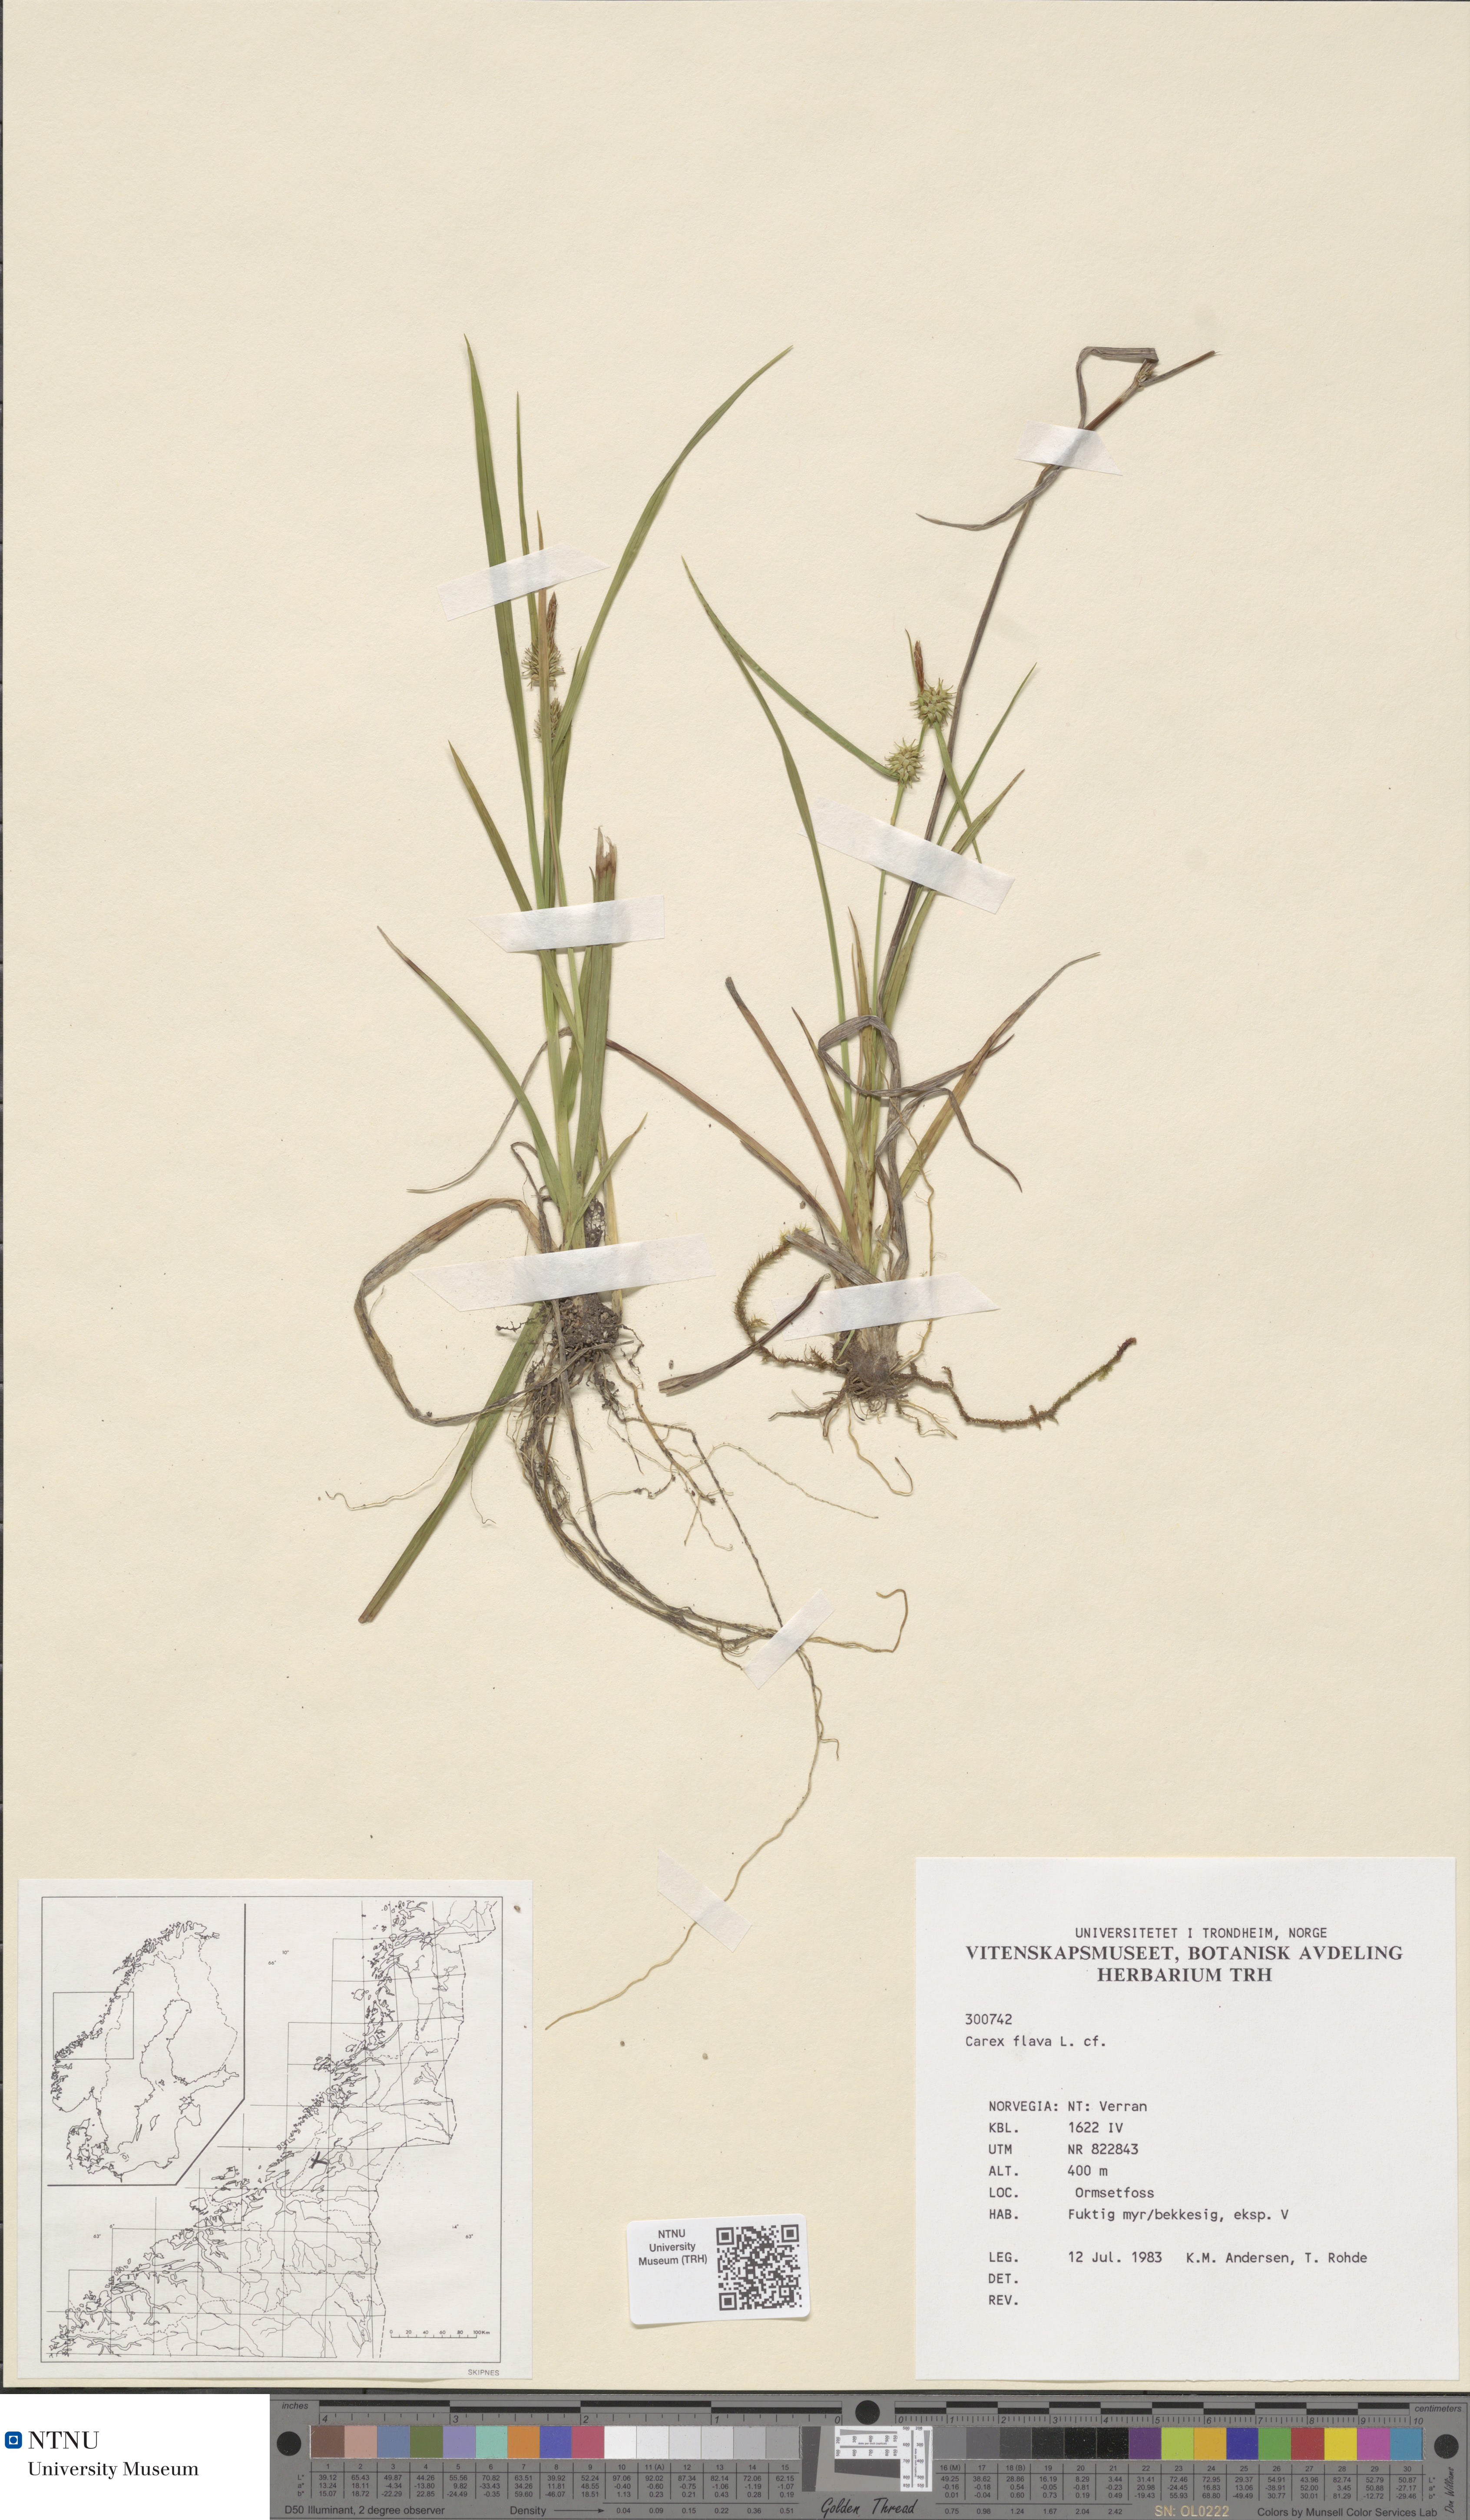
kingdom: Plantae
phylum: Tracheophyta
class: Liliopsida
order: Poales
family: Cyperaceae
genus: Carex
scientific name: Carex flava
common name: Large yellow-sedge
